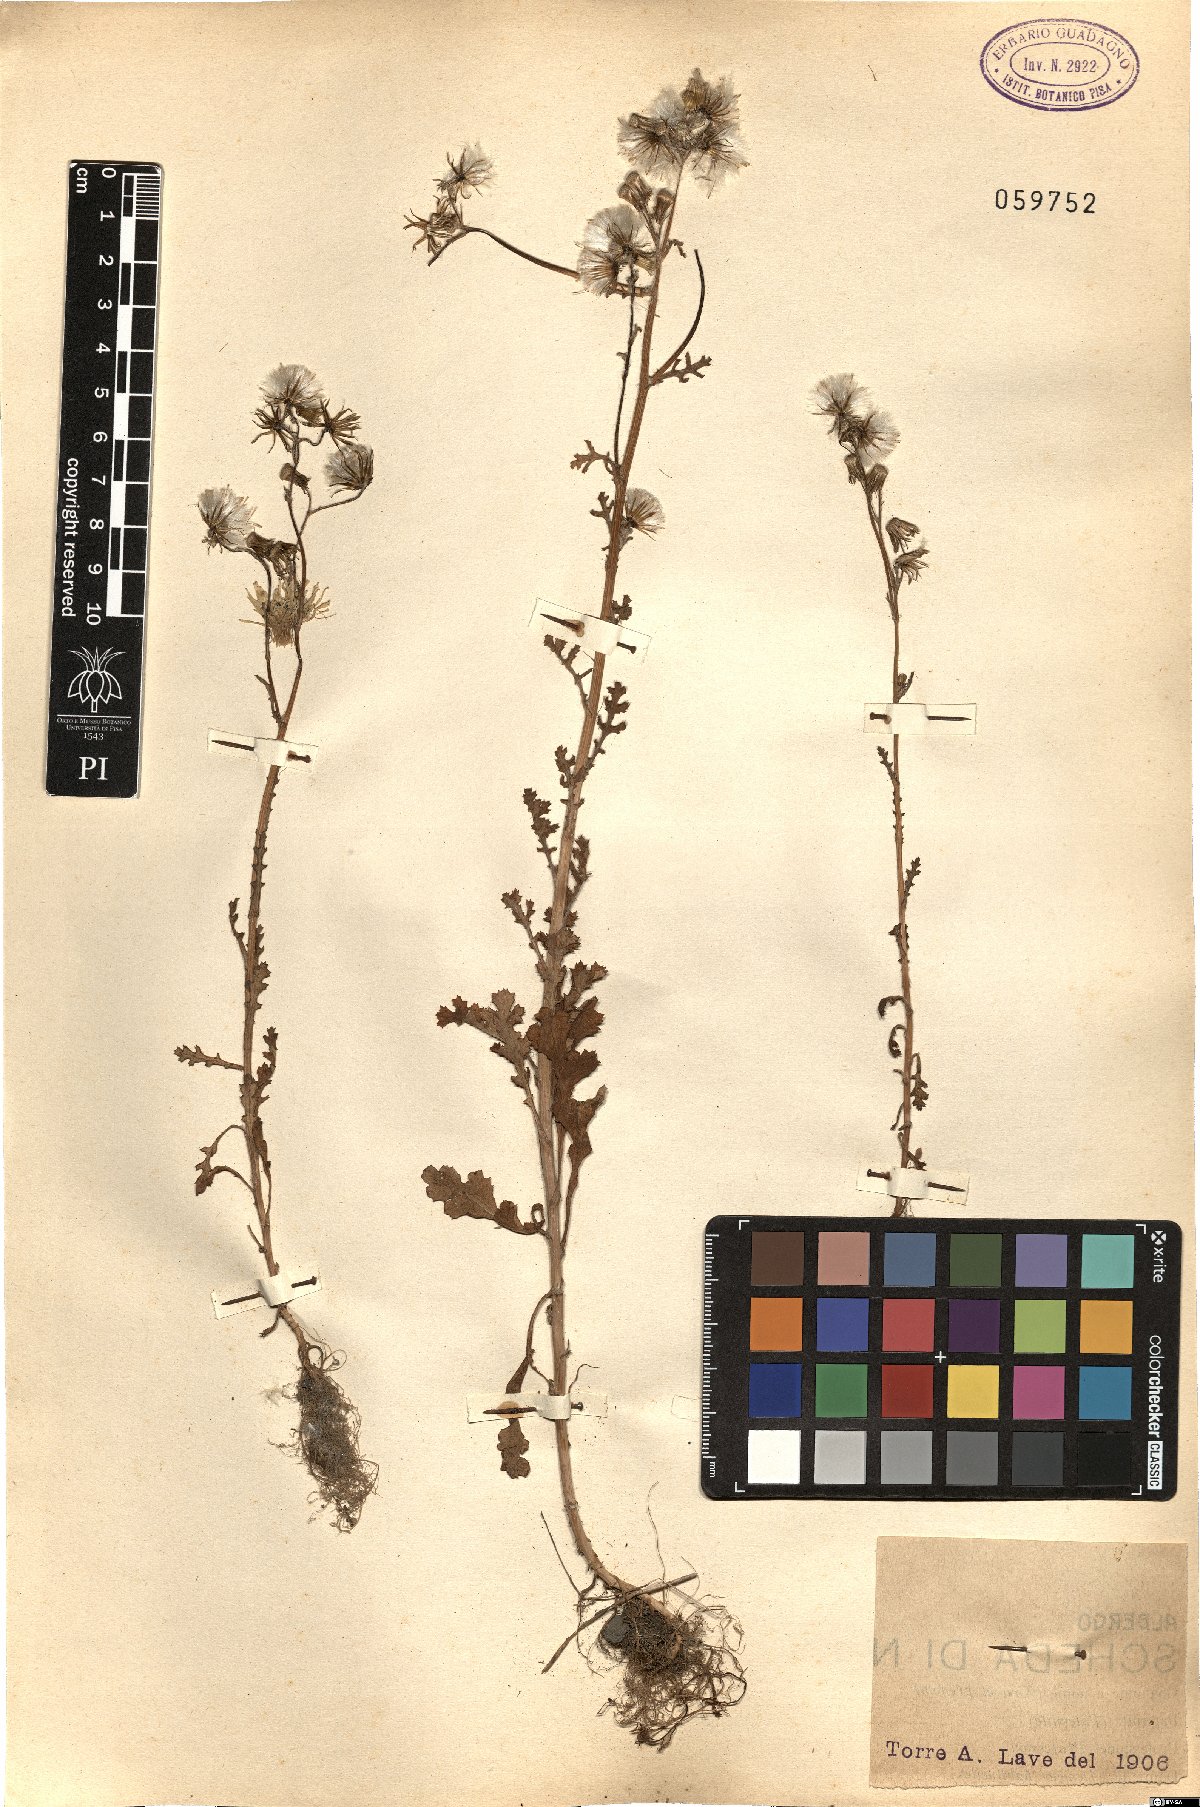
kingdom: Plantae
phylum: Tracheophyta
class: Magnoliopsida
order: Asterales
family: Asteraceae
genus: Senecio
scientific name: Senecio
